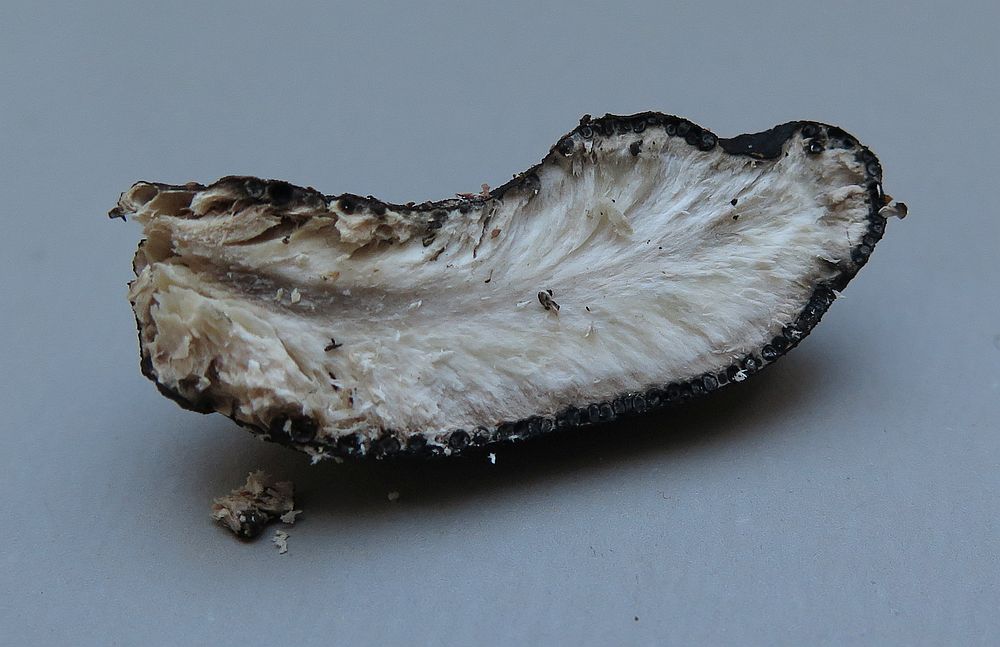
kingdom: Fungi
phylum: Ascomycota
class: Sordariomycetes
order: Xylariales
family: Xylariaceae
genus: Xylaria
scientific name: Xylaria polymorpha
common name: kølle-stødsvamp
